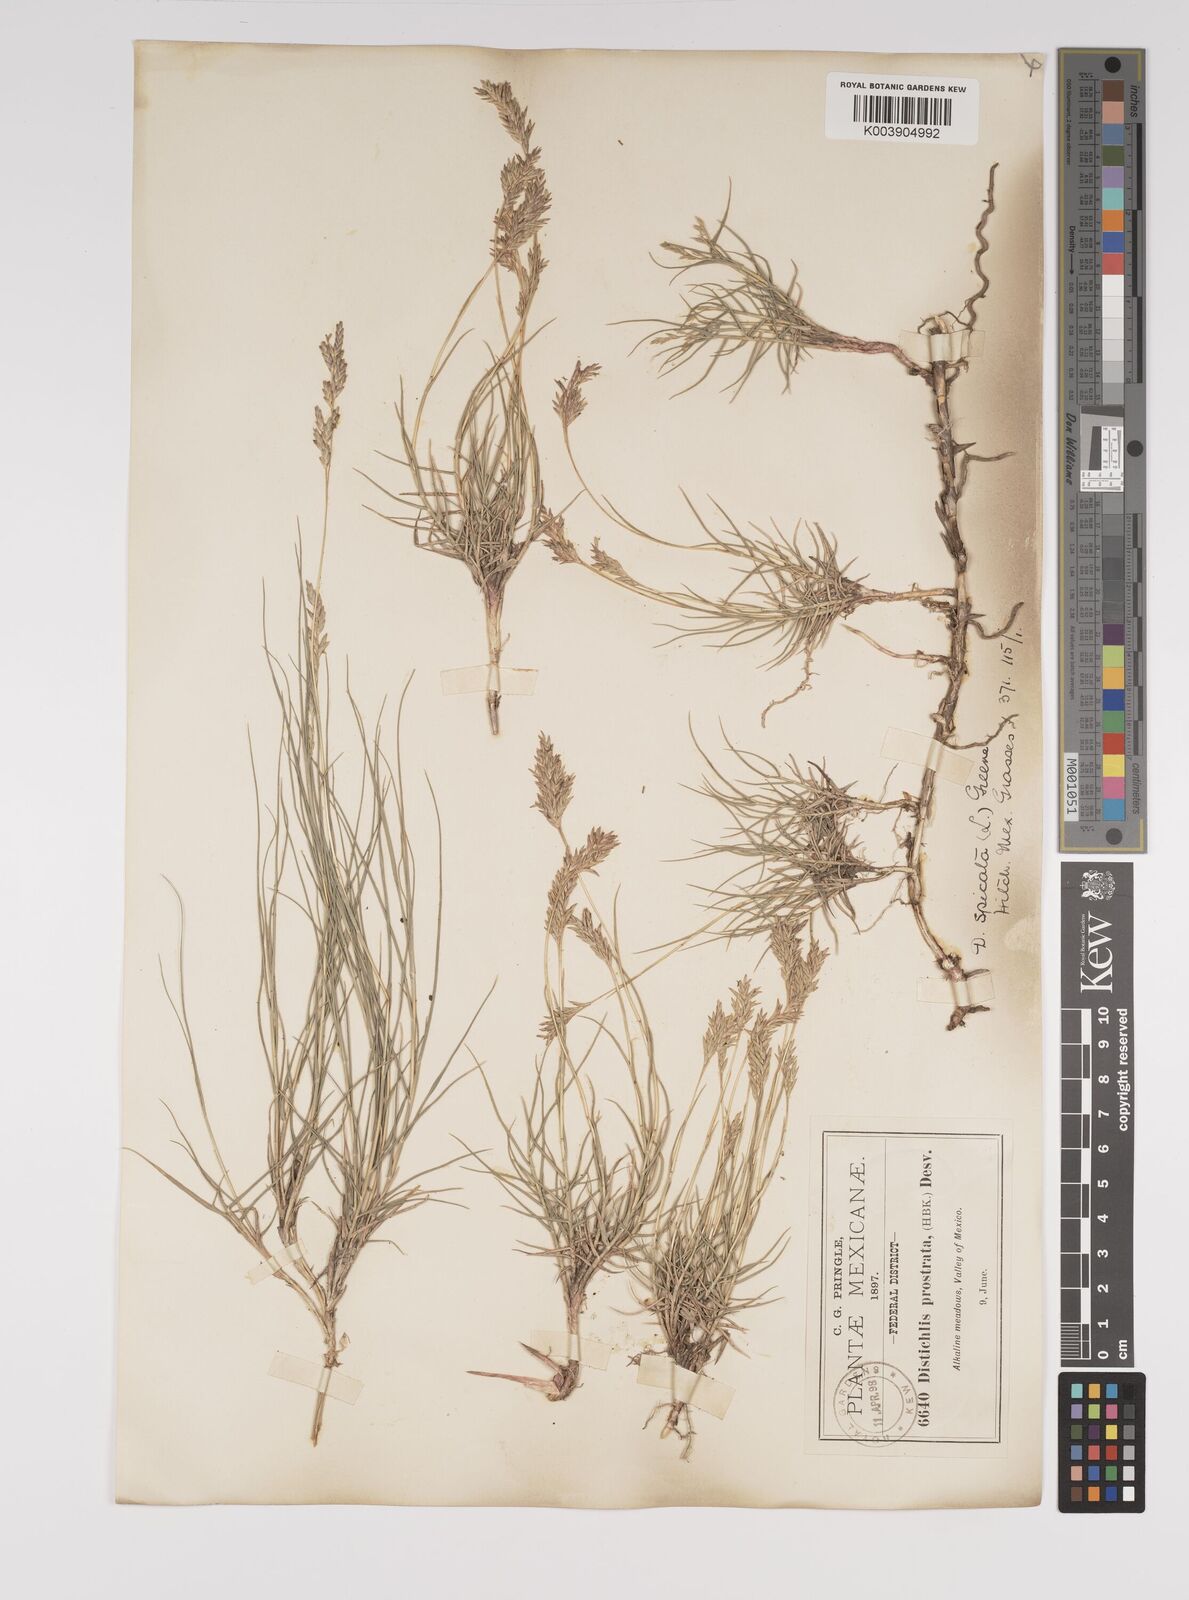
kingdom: Plantae
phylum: Tracheophyta
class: Liliopsida
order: Poales
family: Poaceae
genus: Distichlis
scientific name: Distichlis spicata
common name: Saltgrass
